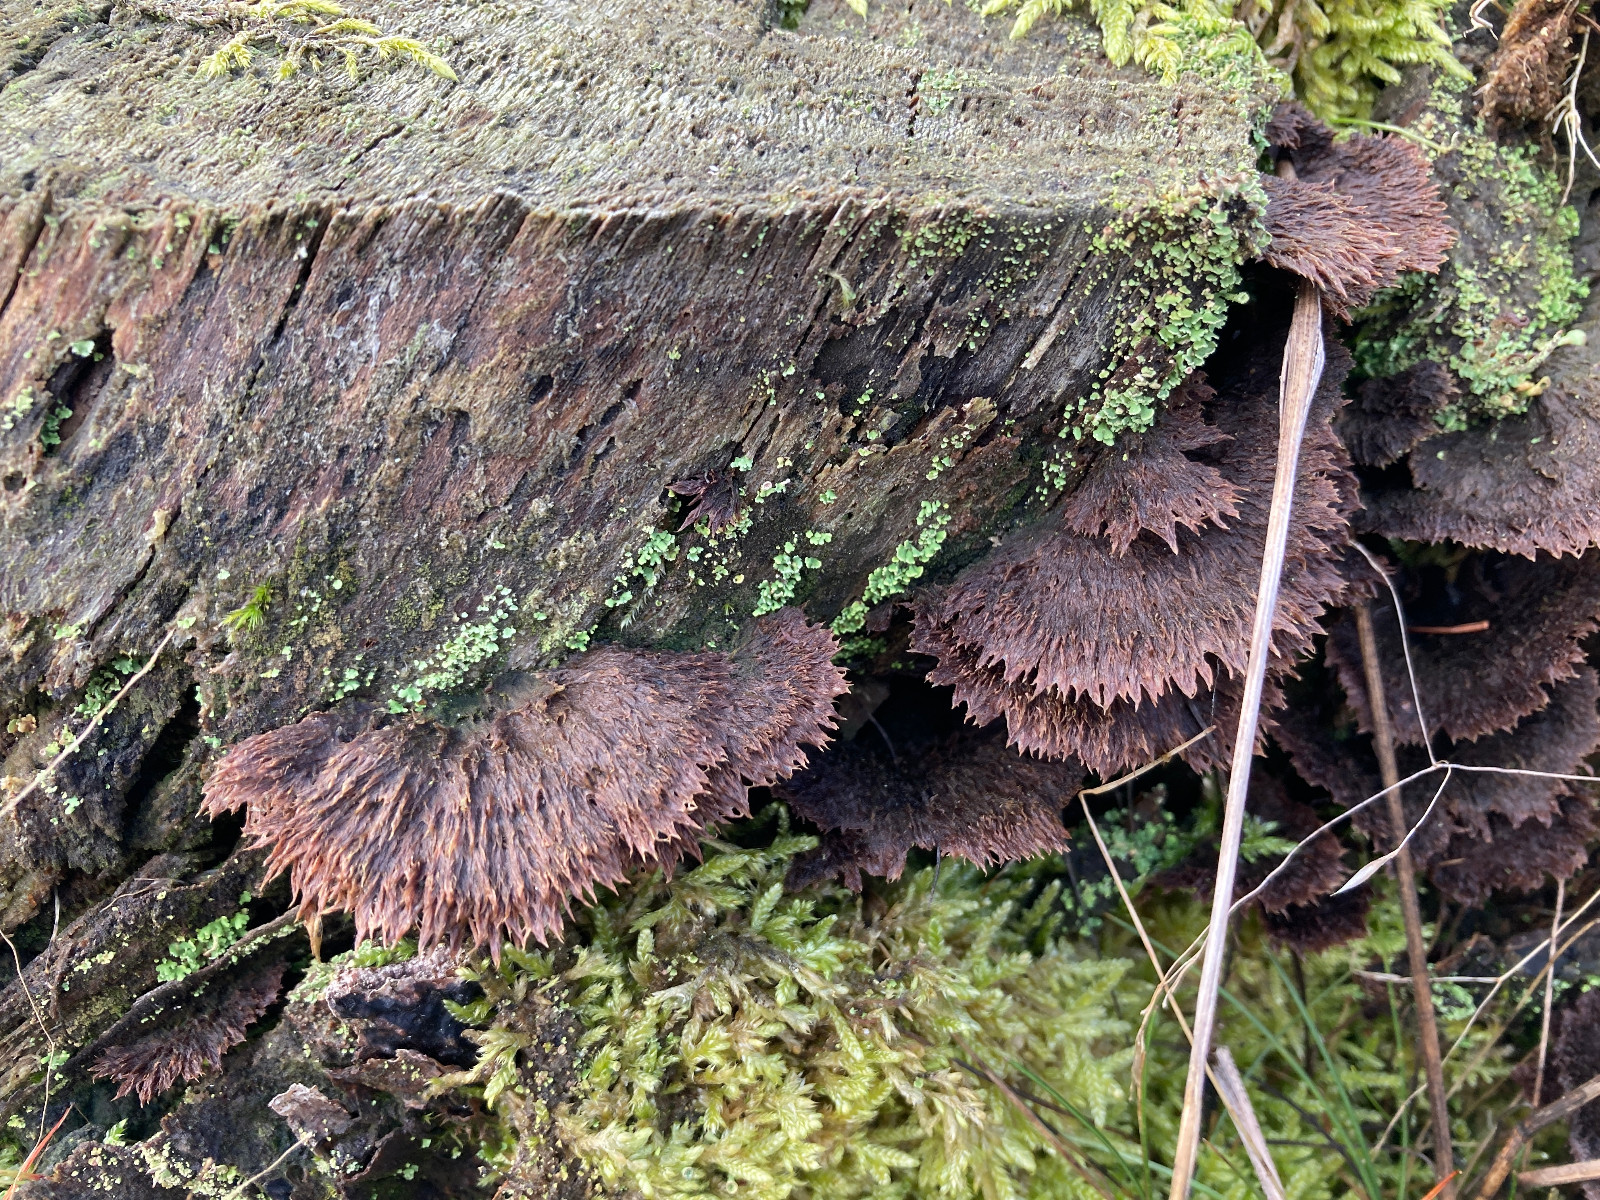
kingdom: Fungi
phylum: Basidiomycota
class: Agaricomycetes
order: Thelephorales
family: Thelephoraceae
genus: Thelephora
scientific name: Thelephora terrestris
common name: fliget frynsesvamp
